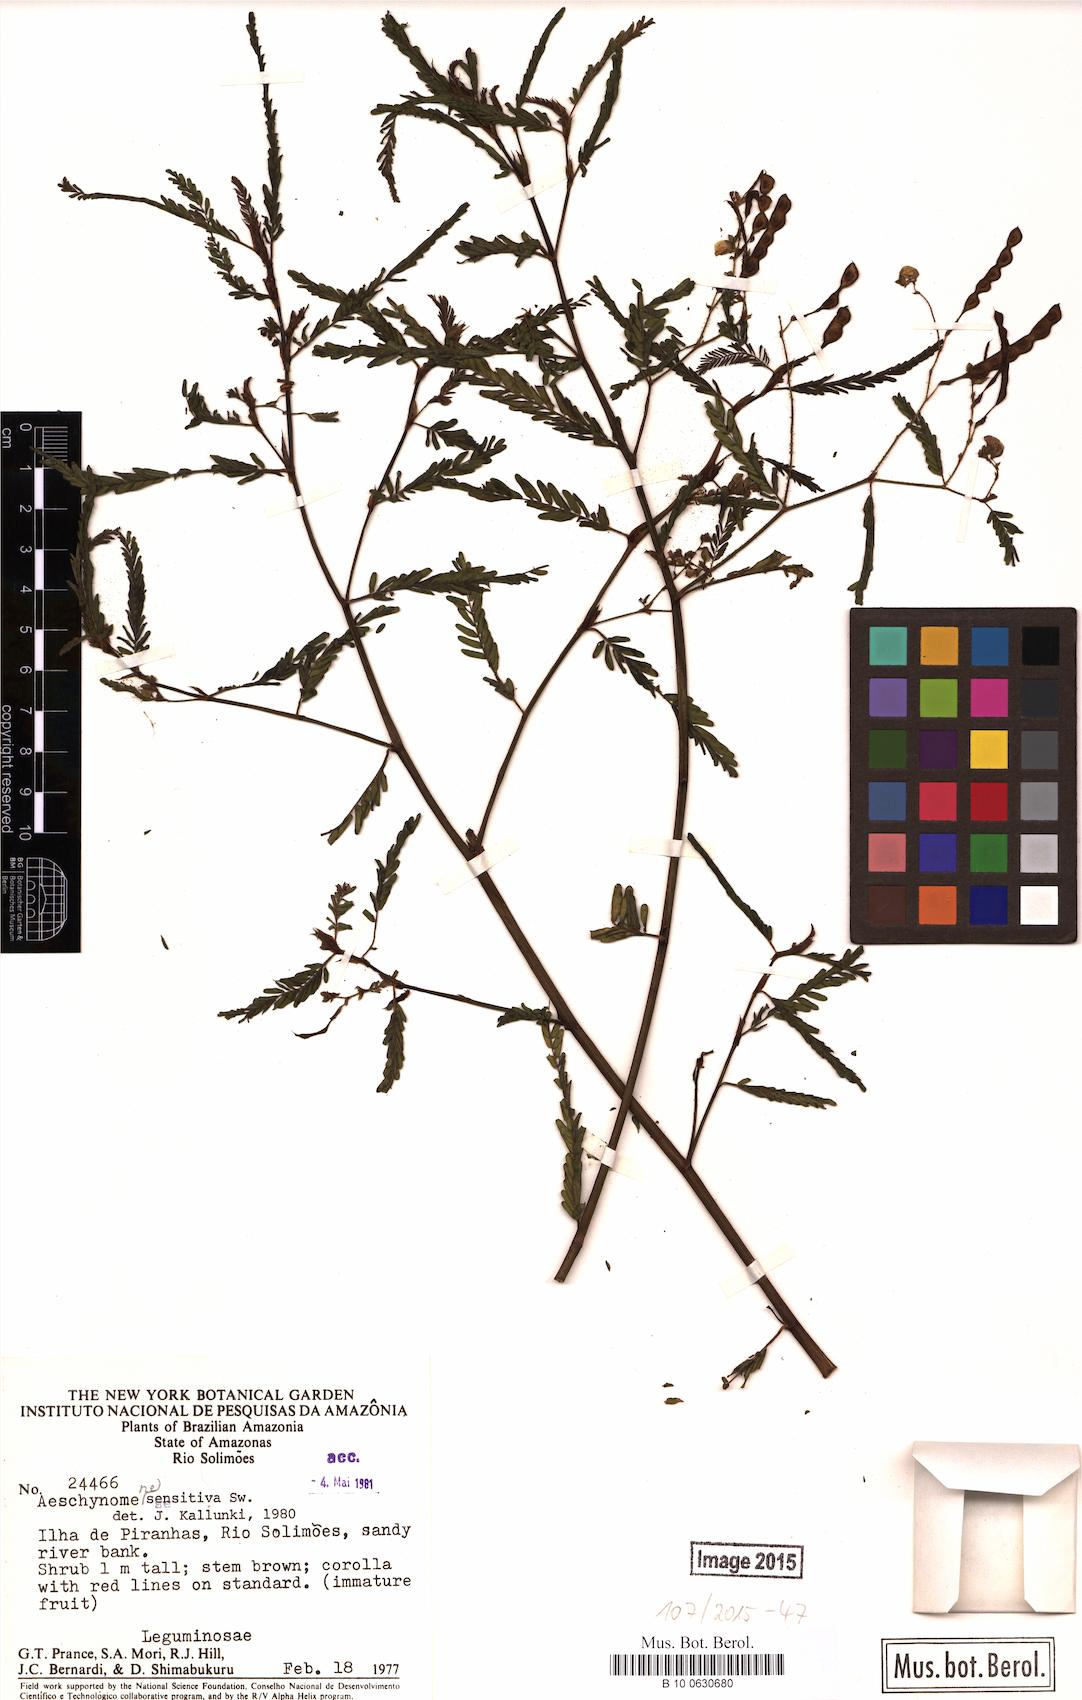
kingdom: Plantae
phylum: Tracheophyta
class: Magnoliopsida
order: Fabales
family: Fabaceae
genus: Aeschynomene
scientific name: Aeschynomene sensitiva
